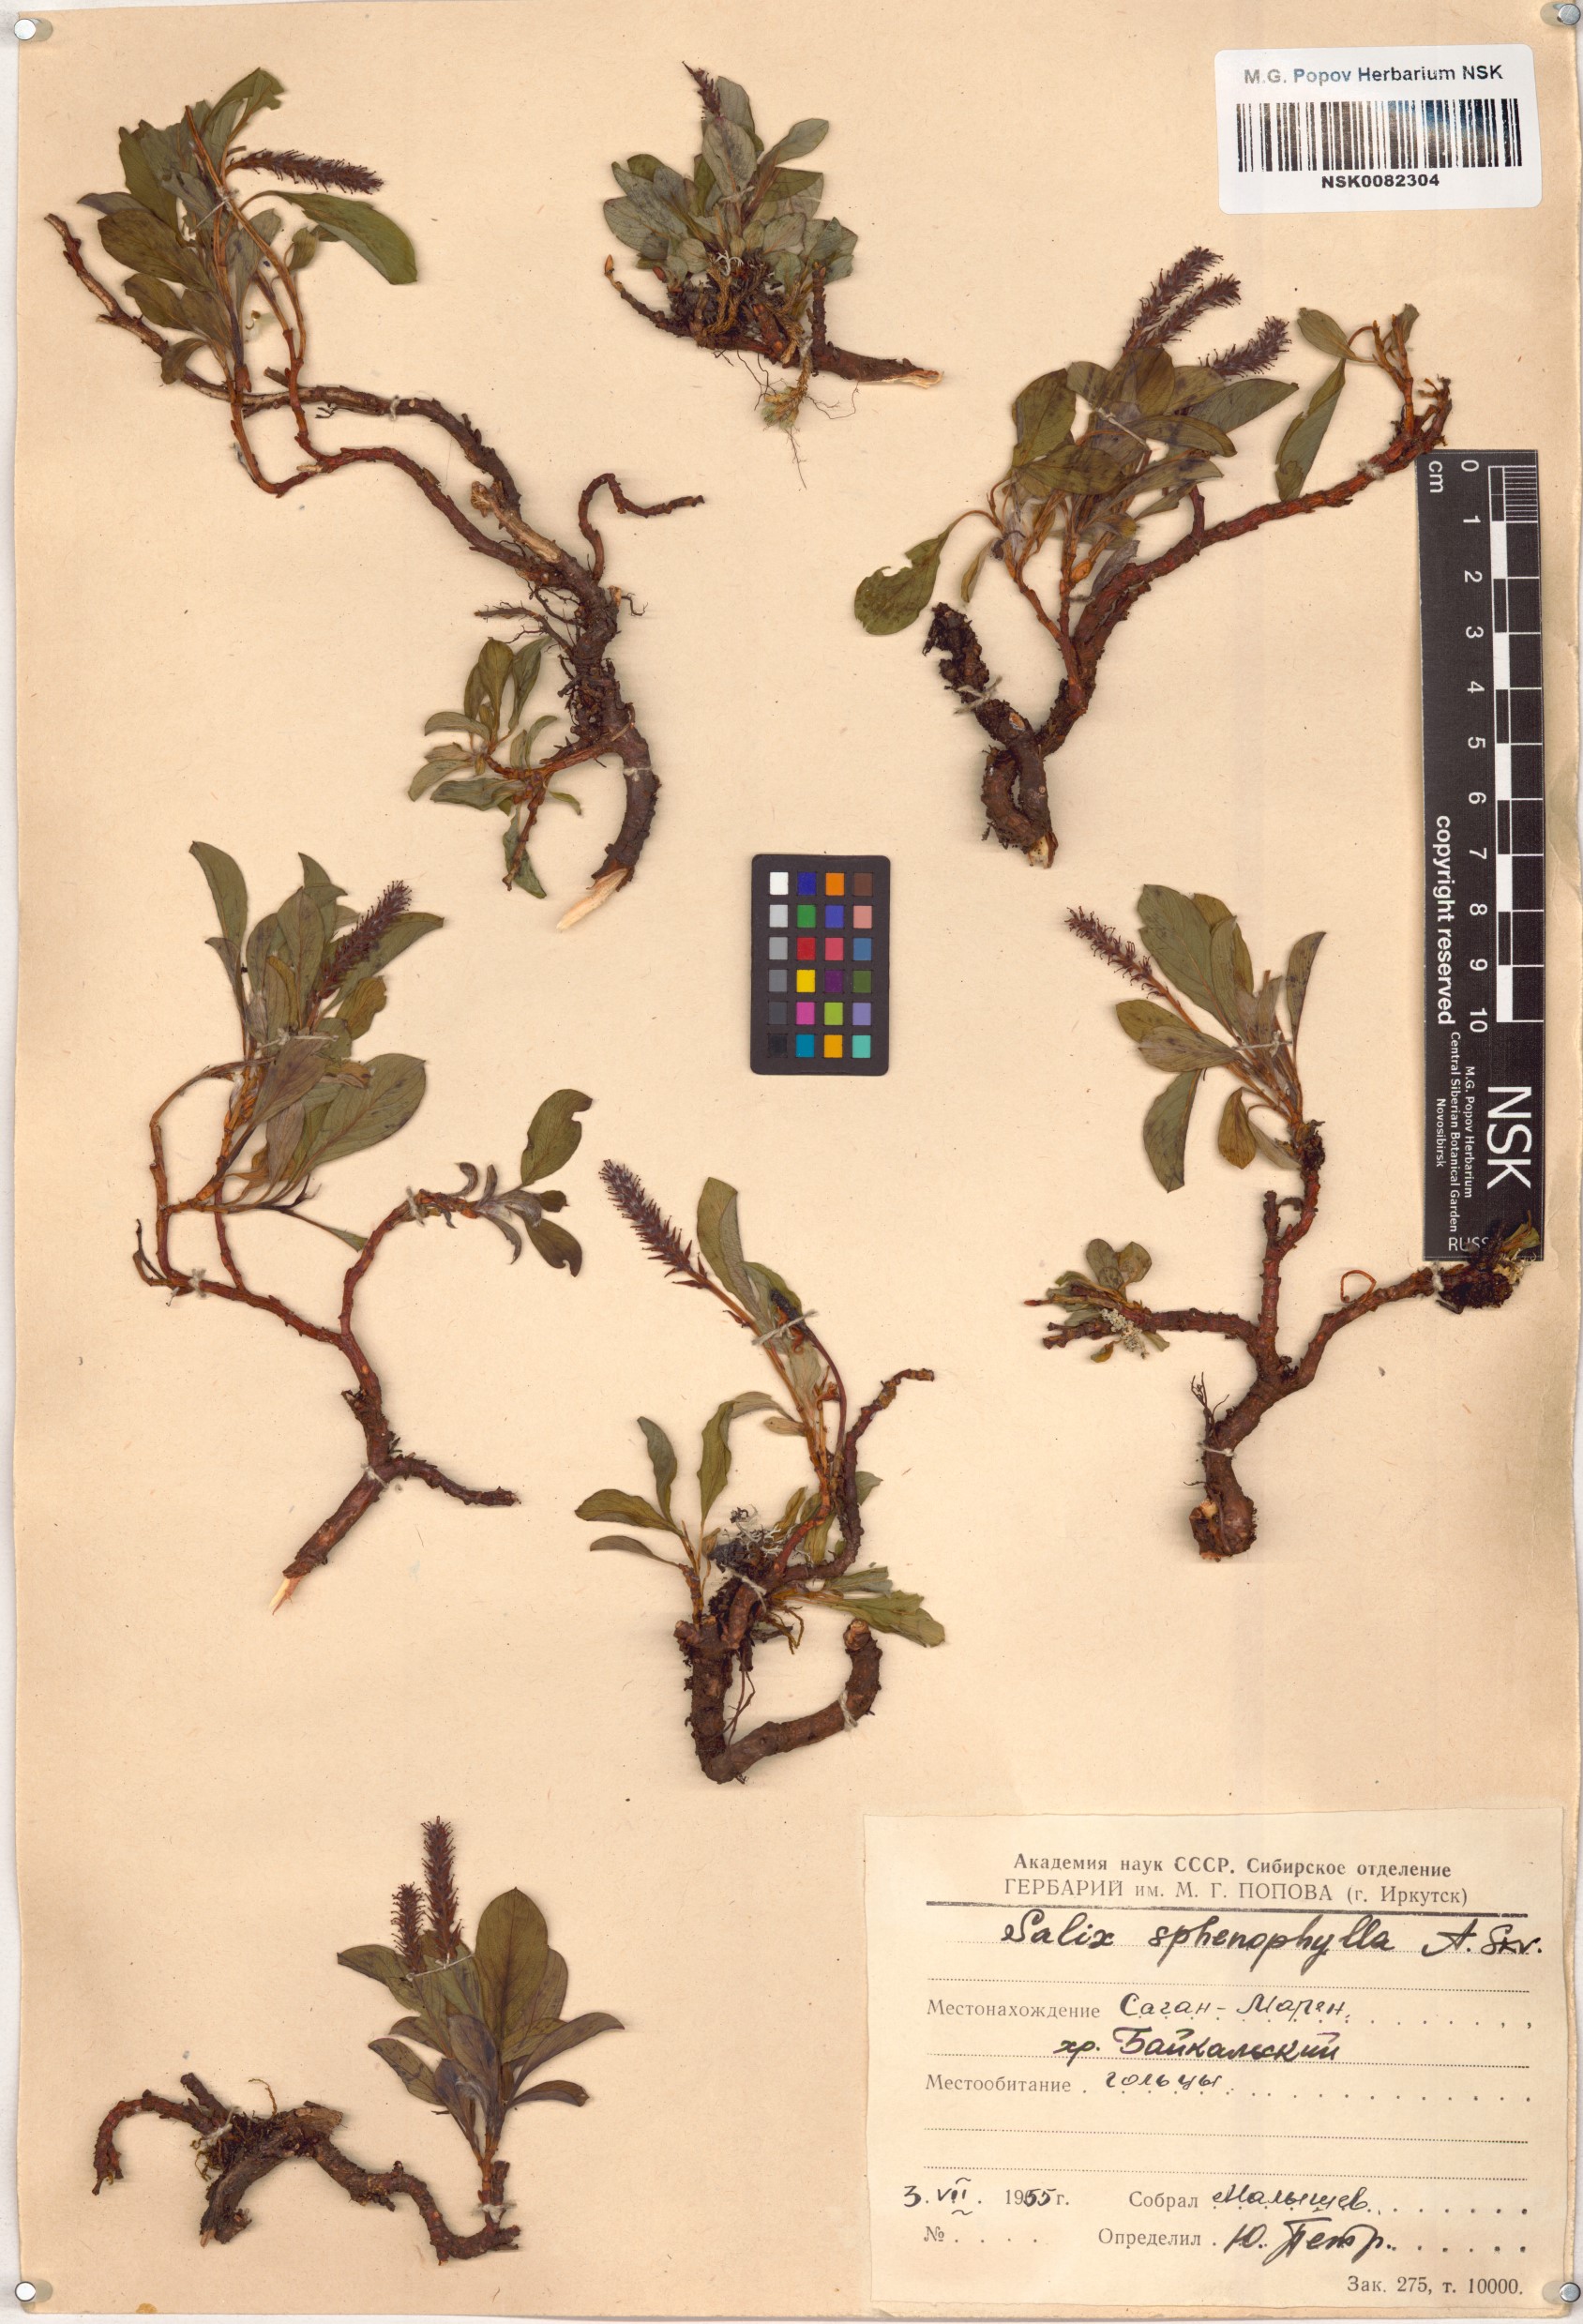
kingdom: Plantae
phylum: Tracheophyta
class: Magnoliopsida
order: Malpighiales
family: Salicaceae
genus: Salix
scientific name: Salix sphenophylla
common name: Wedge-leaved willow
